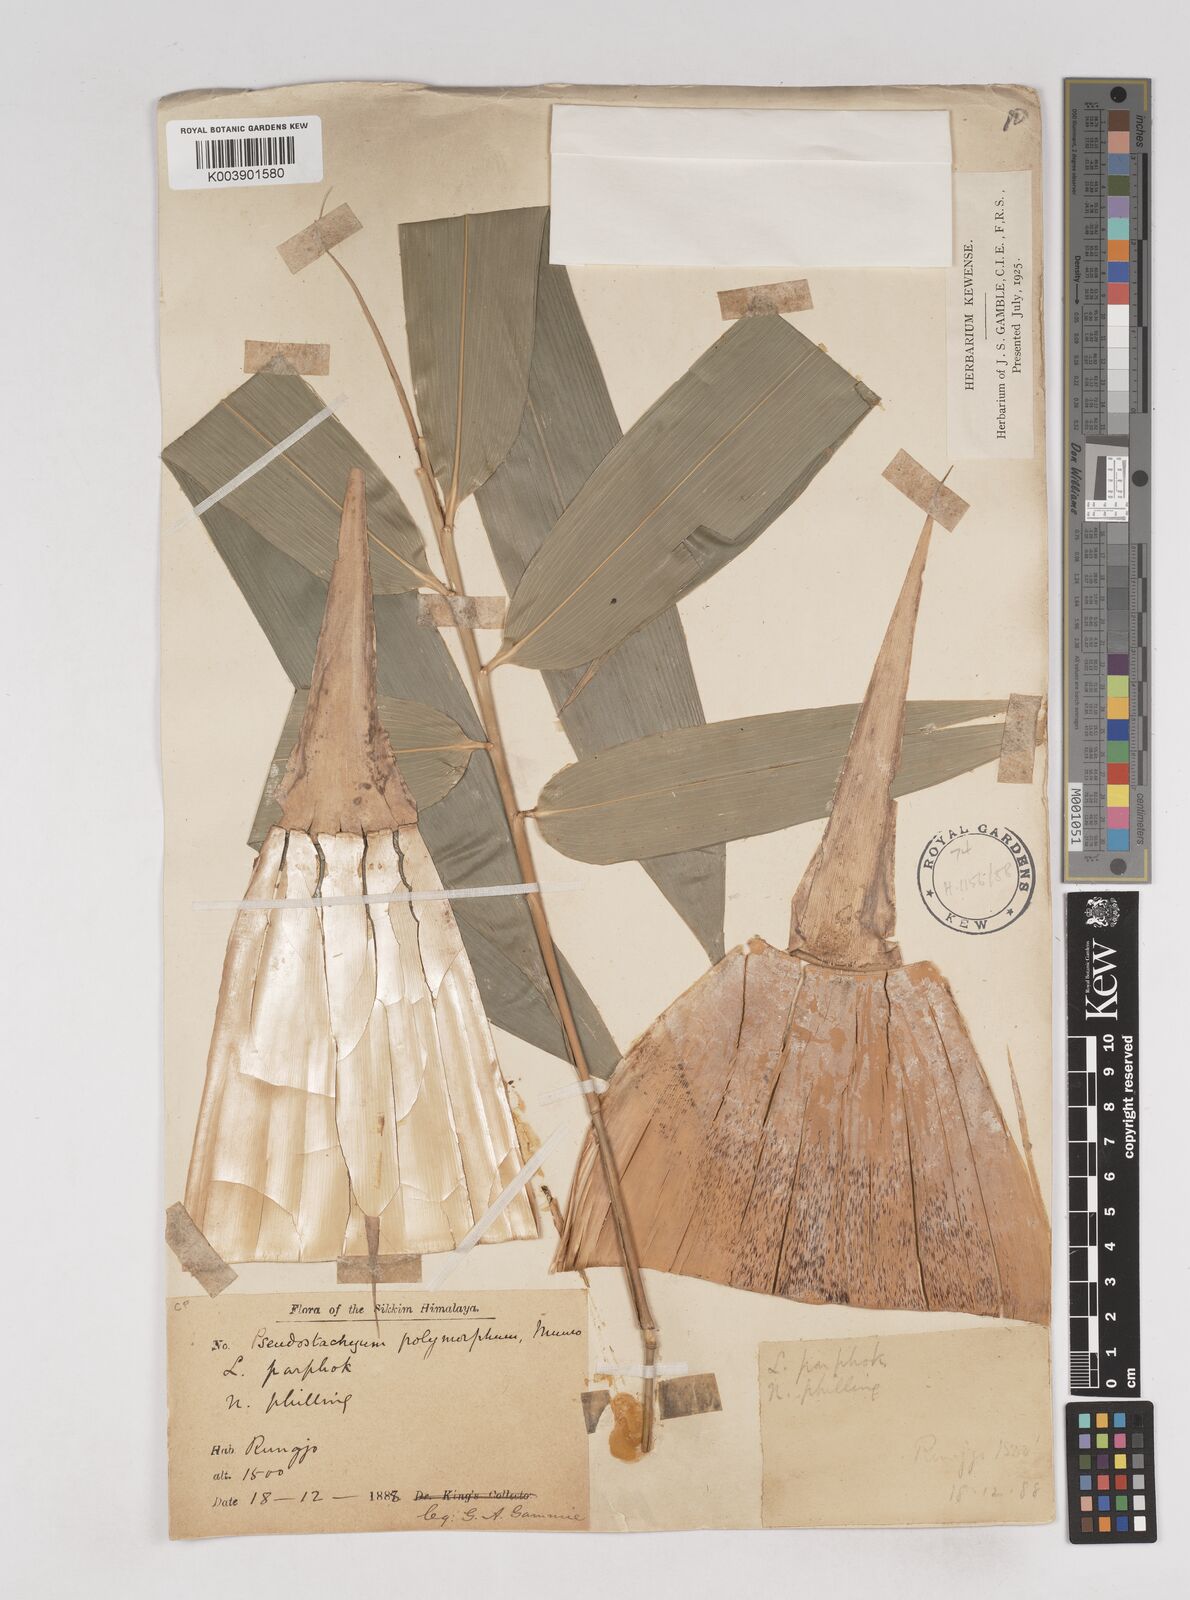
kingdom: Plantae
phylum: Tracheophyta
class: Liliopsida
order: Poales
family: Poaceae
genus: Pseudostachyum
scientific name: Pseudostachyum polymorphum
